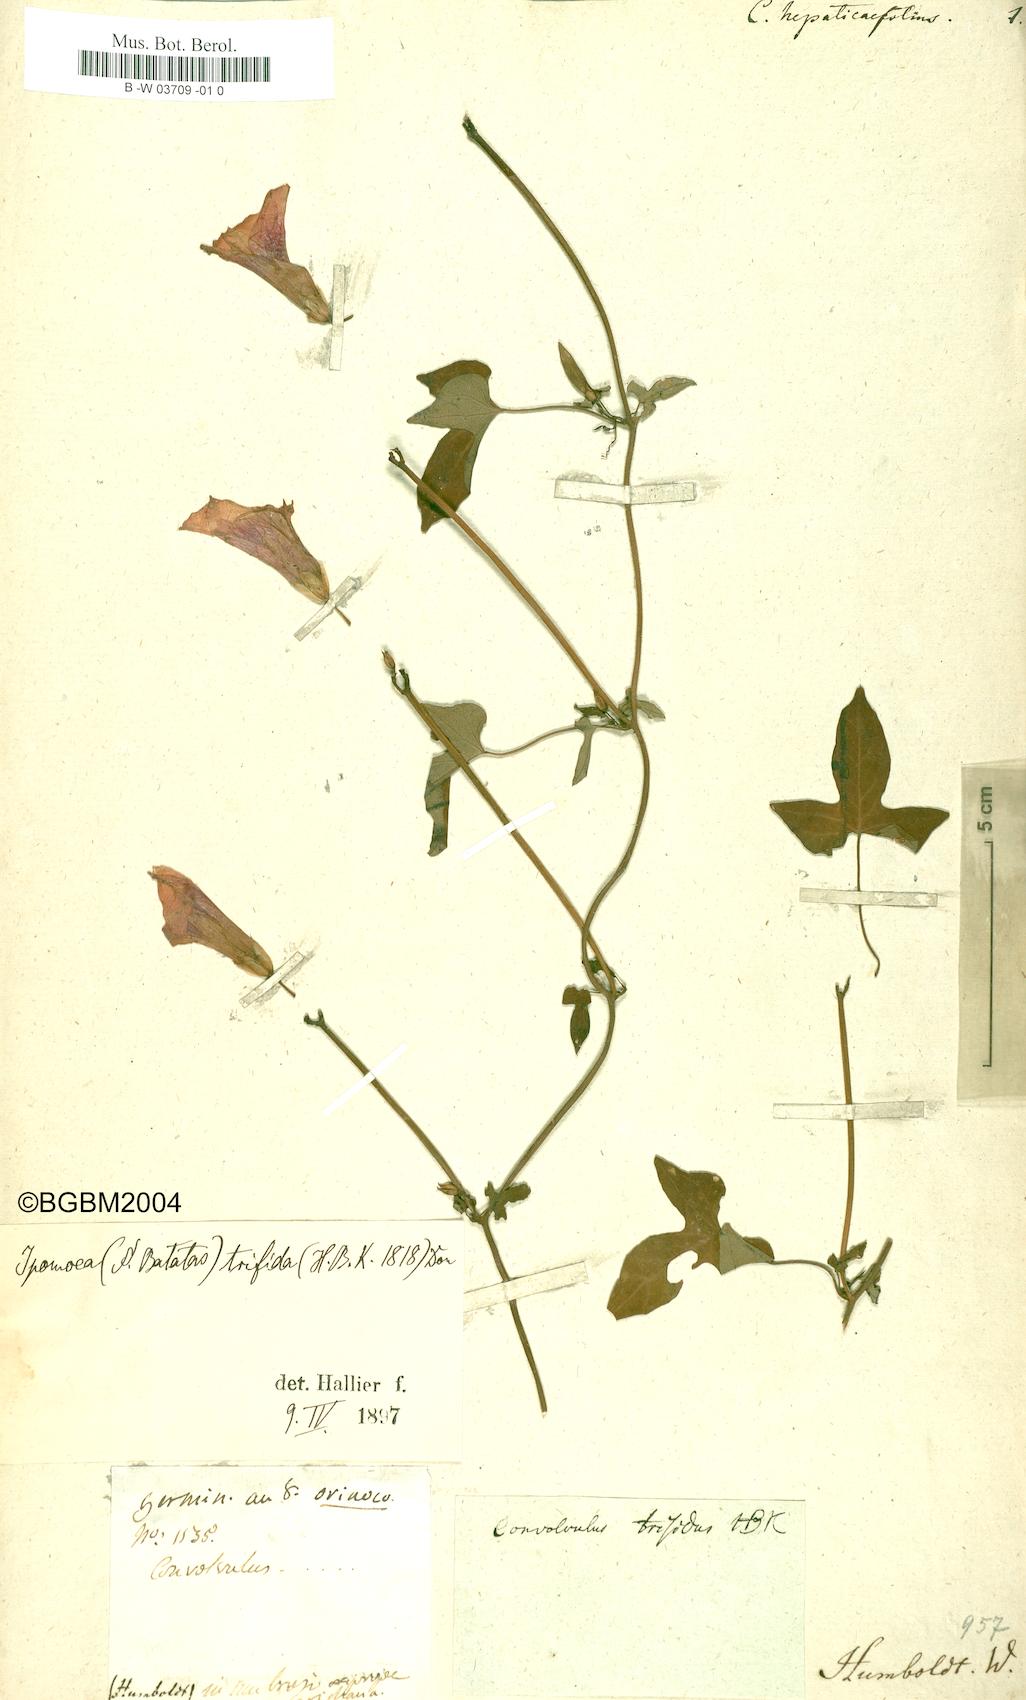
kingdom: Plantae
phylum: Tracheophyta
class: Magnoliopsida
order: Solanales
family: Convolvulaceae
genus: Ipomoea
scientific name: Ipomoea
